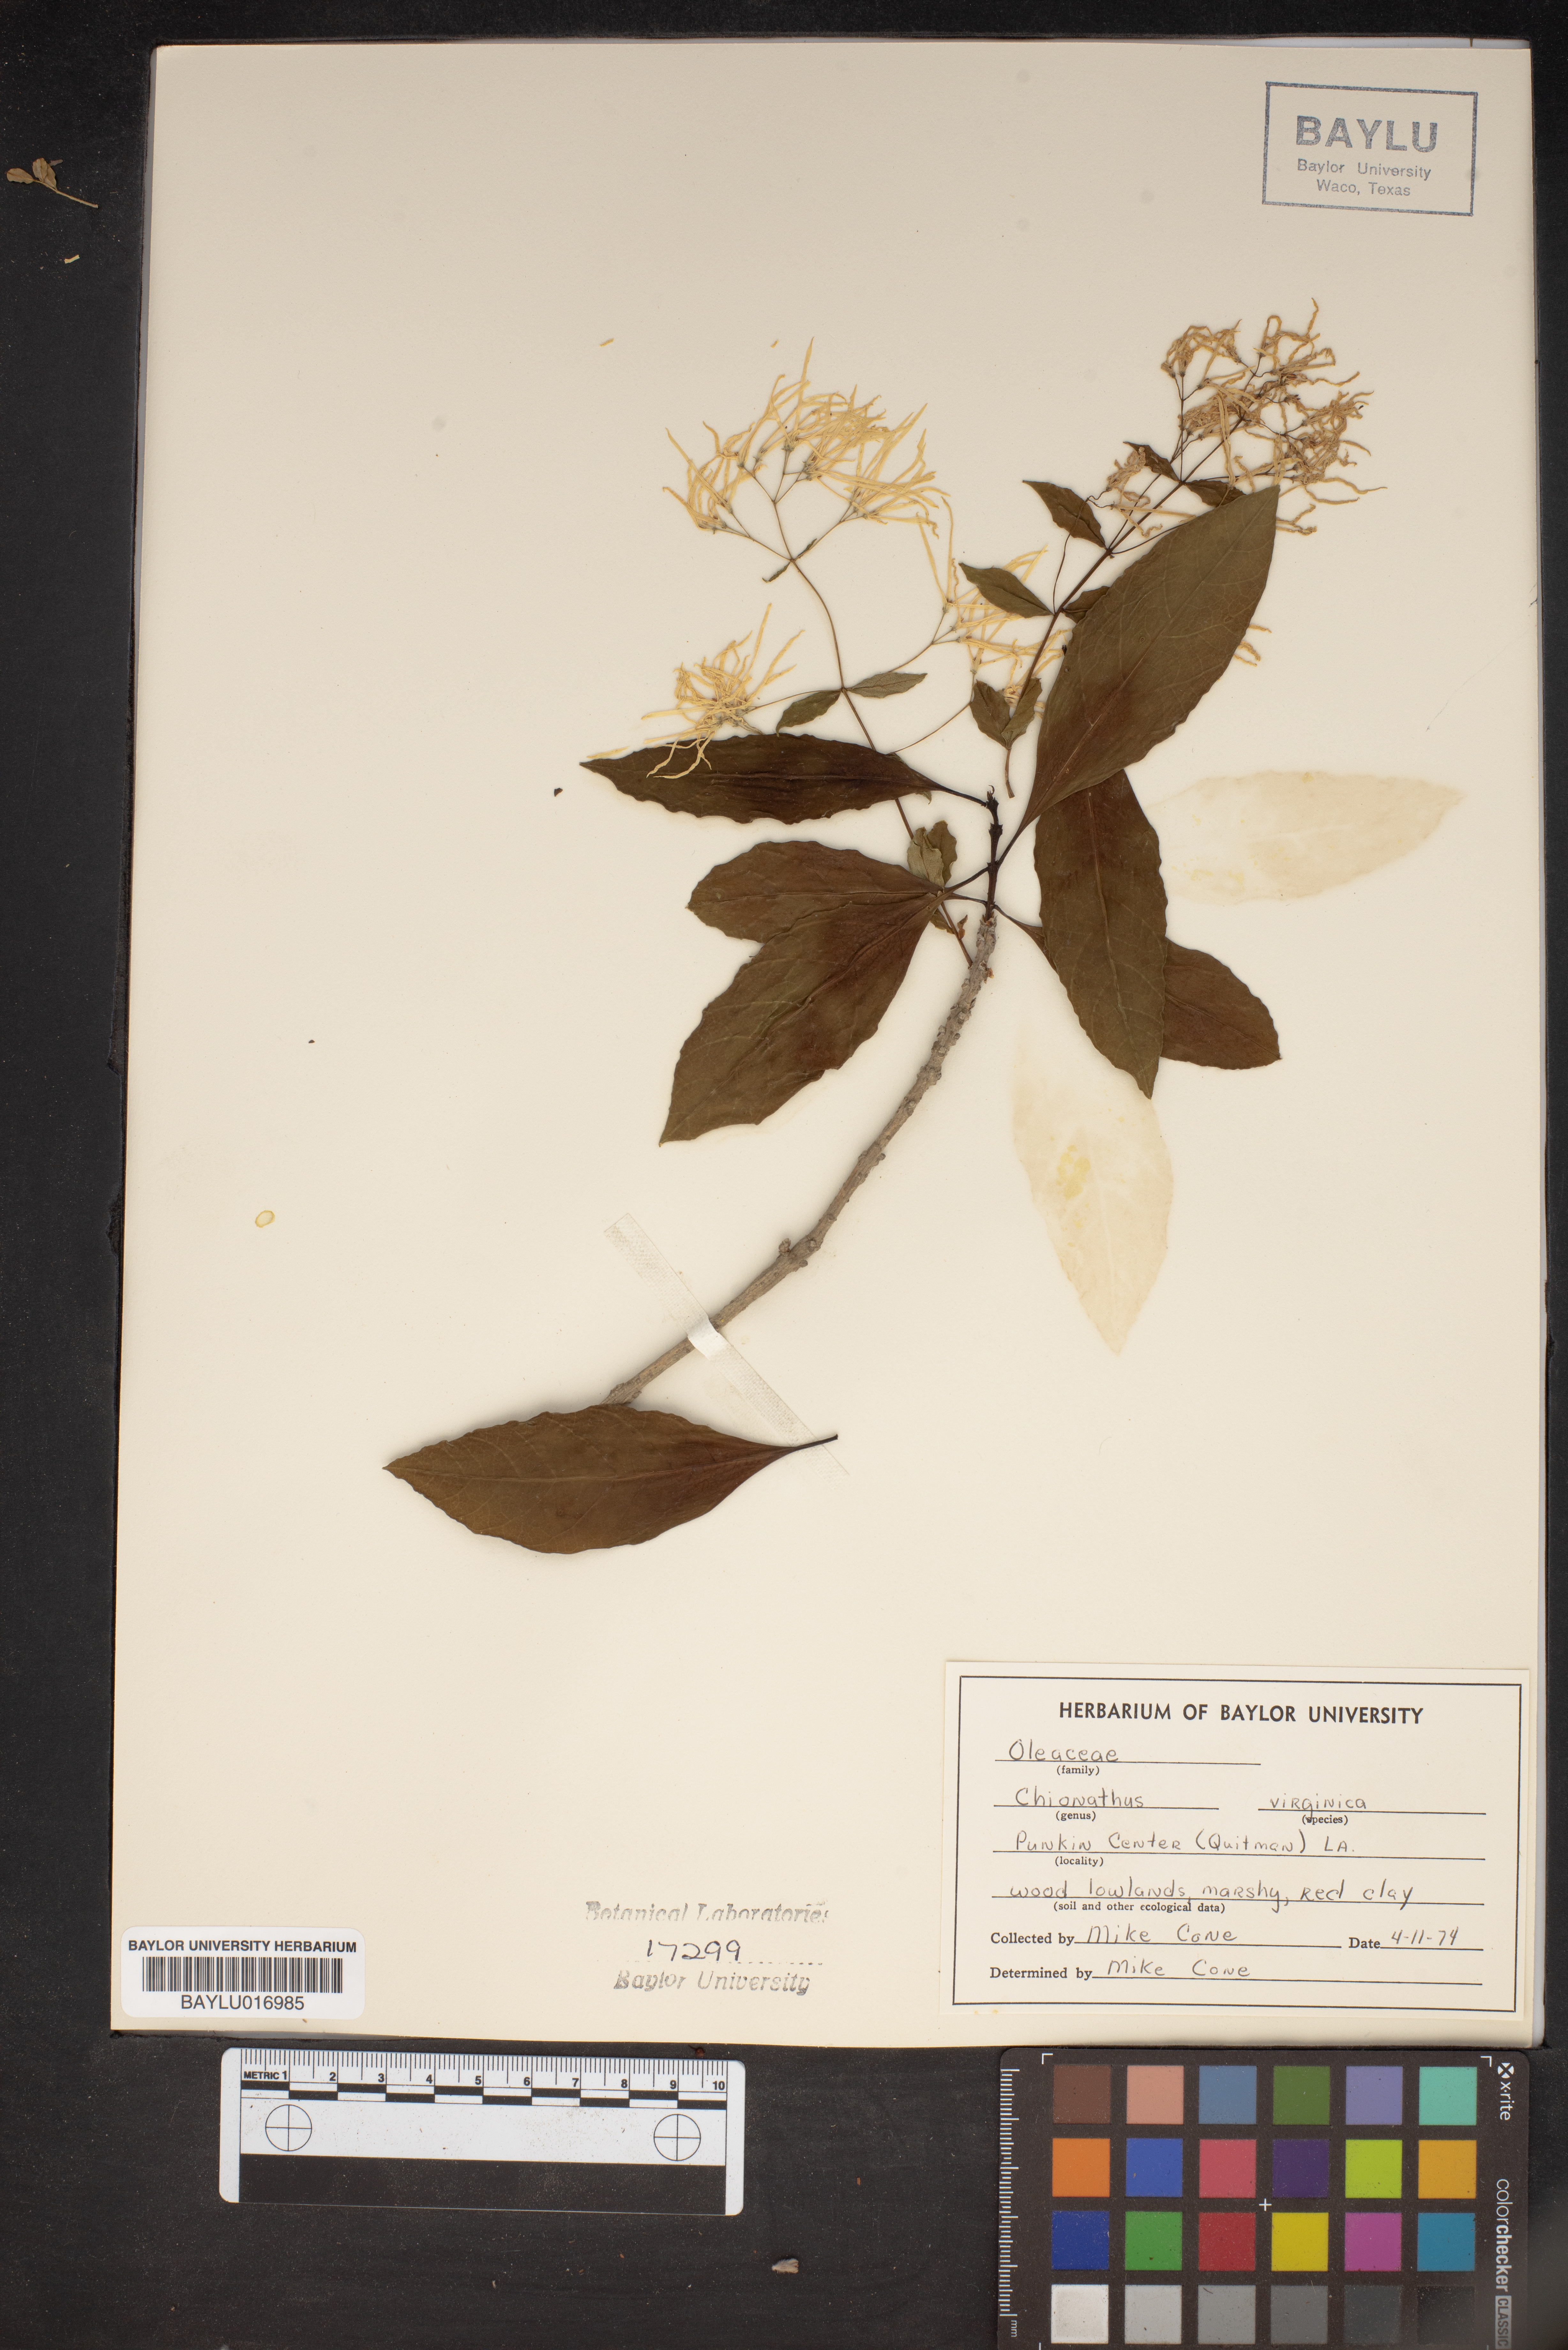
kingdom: Plantae
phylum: Tracheophyta
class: Magnoliopsida
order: Lamiales
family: Oleaceae
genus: Chionanthus
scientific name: Chionanthus virginicus
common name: American fringetree
